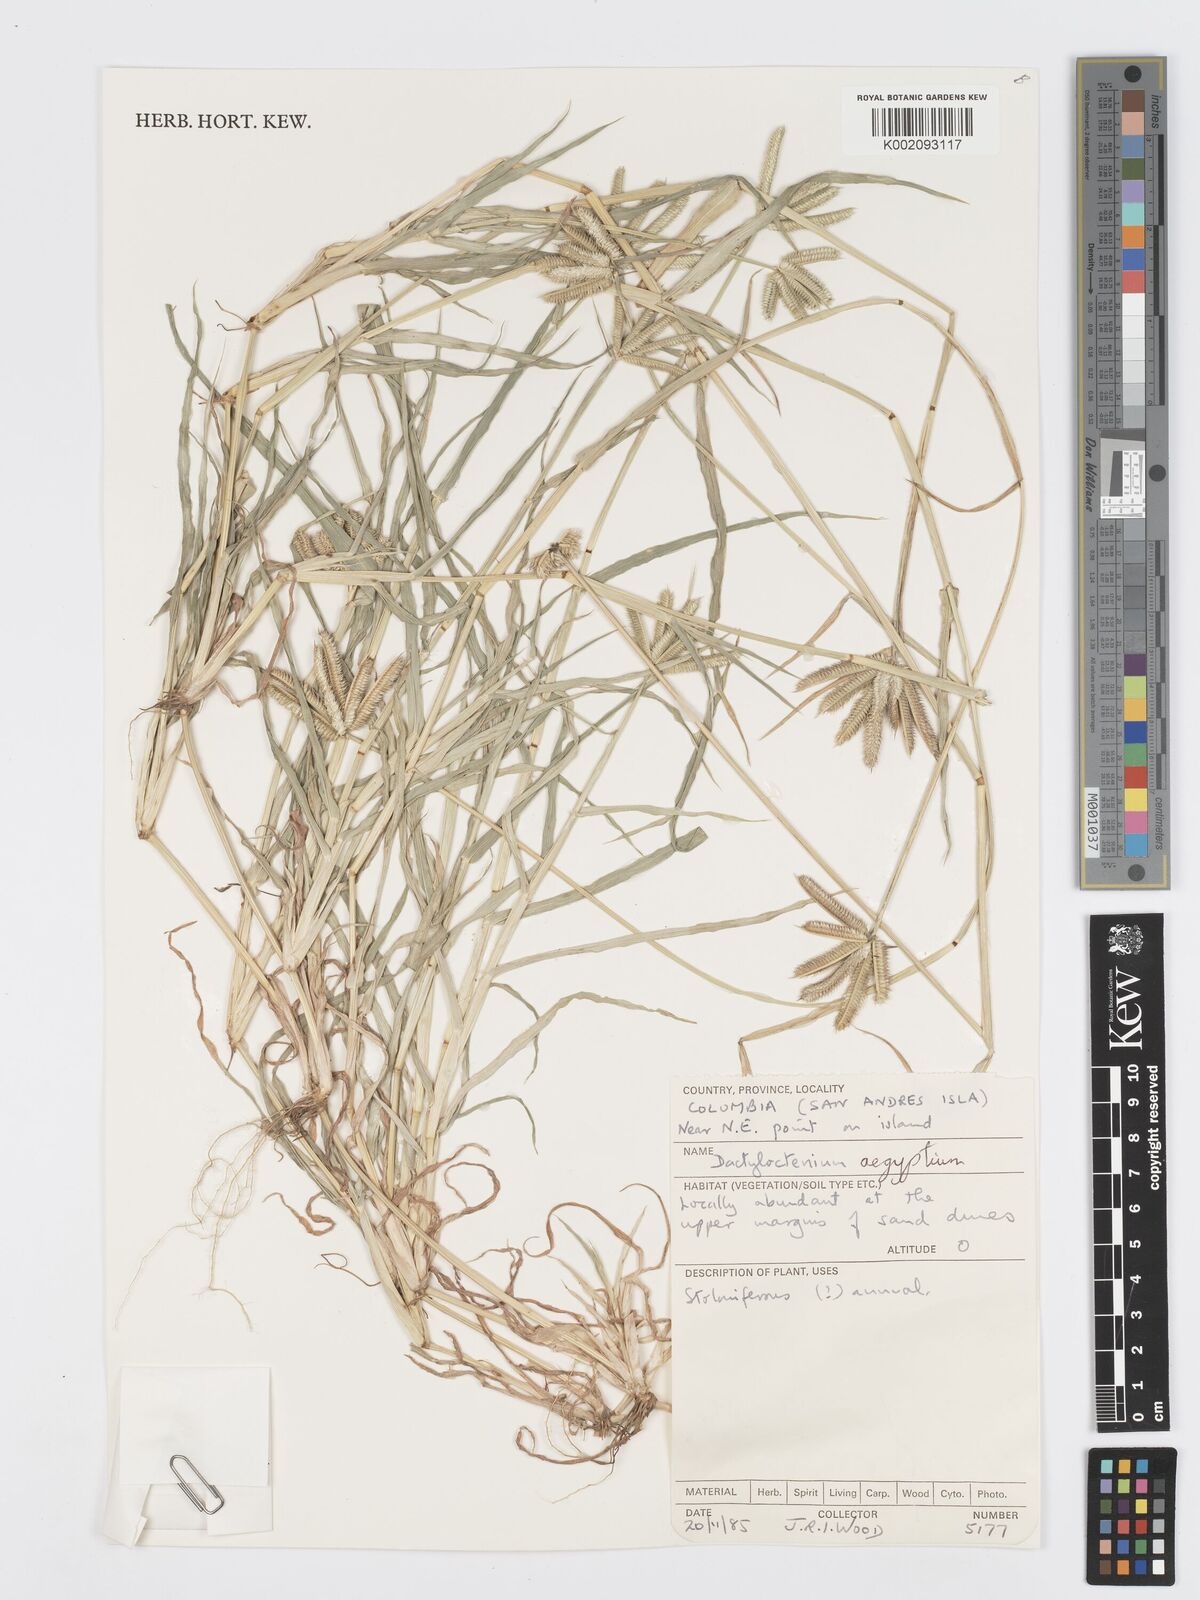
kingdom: Plantae
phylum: Tracheophyta
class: Liliopsida
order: Poales
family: Poaceae
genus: Dactyloctenium
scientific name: Dactyloctenium aegyptium
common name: Egyptian grass
